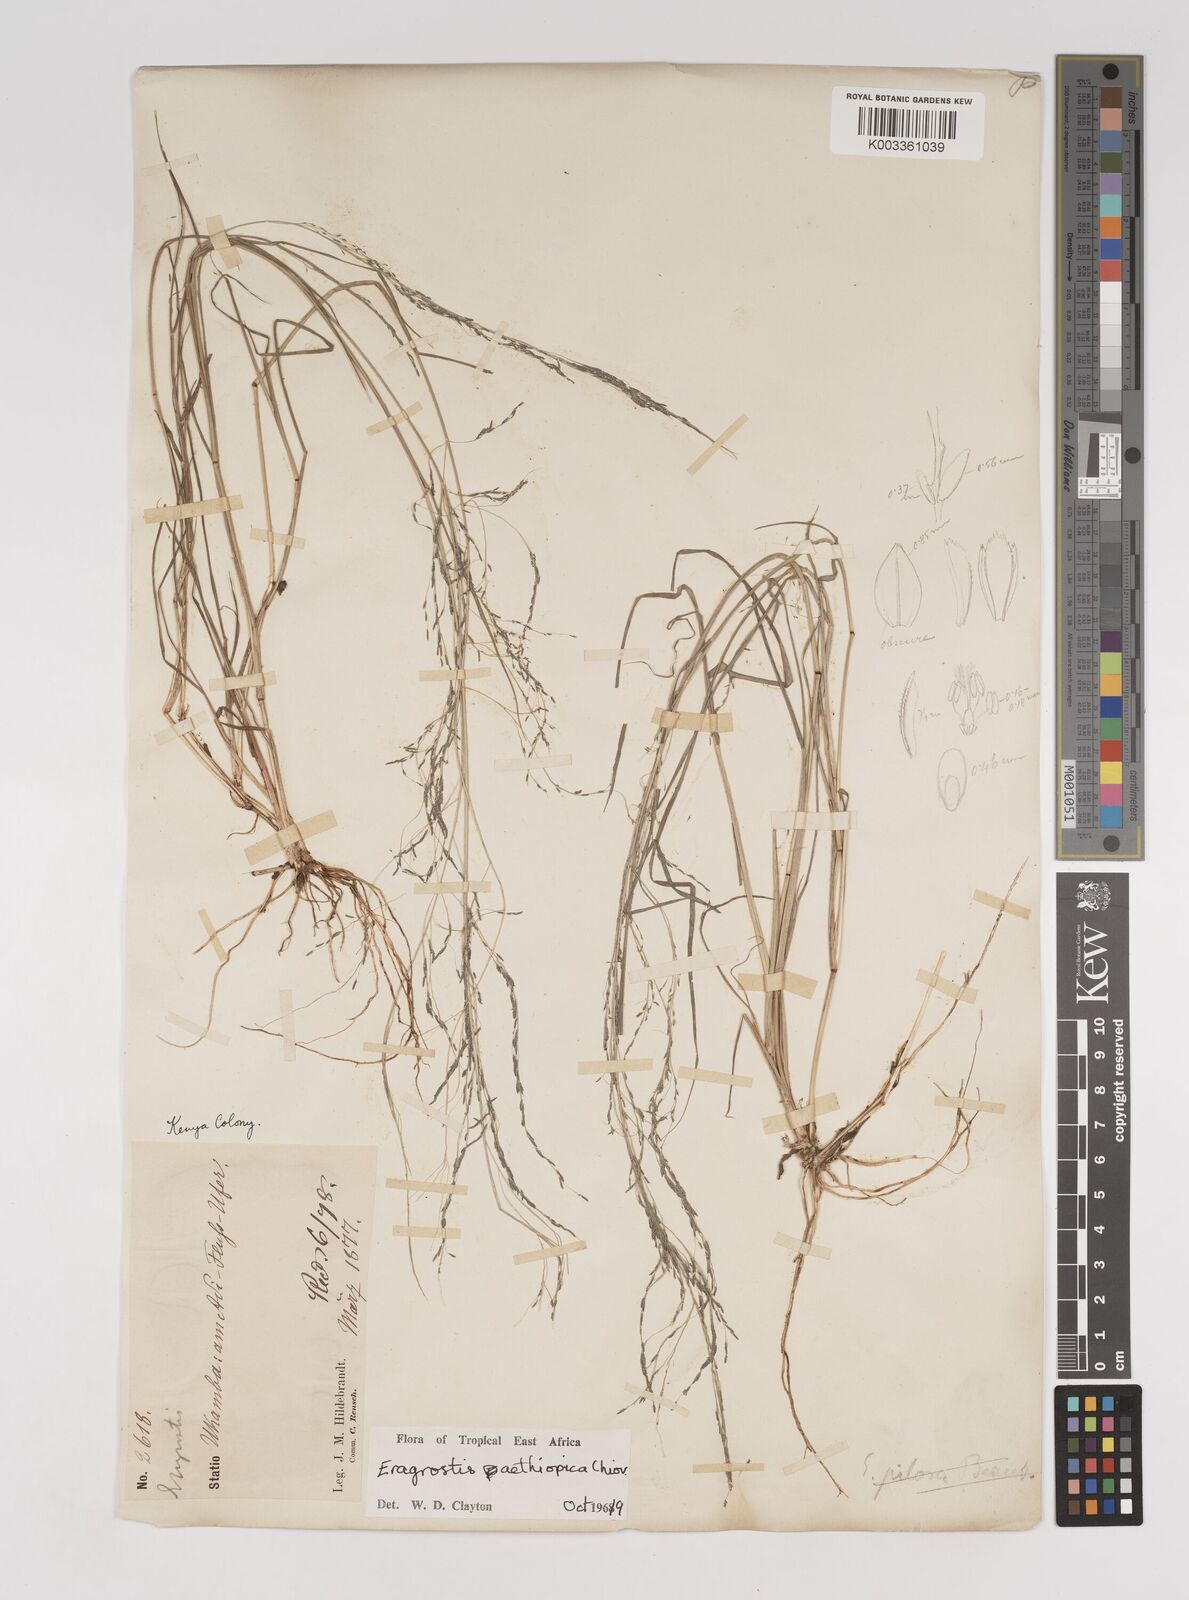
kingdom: Plantae
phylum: Tracheophyta
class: Liliopsida
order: Poales
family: Poaceae
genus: Eragrostis
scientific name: Eragrostis aethiopica
